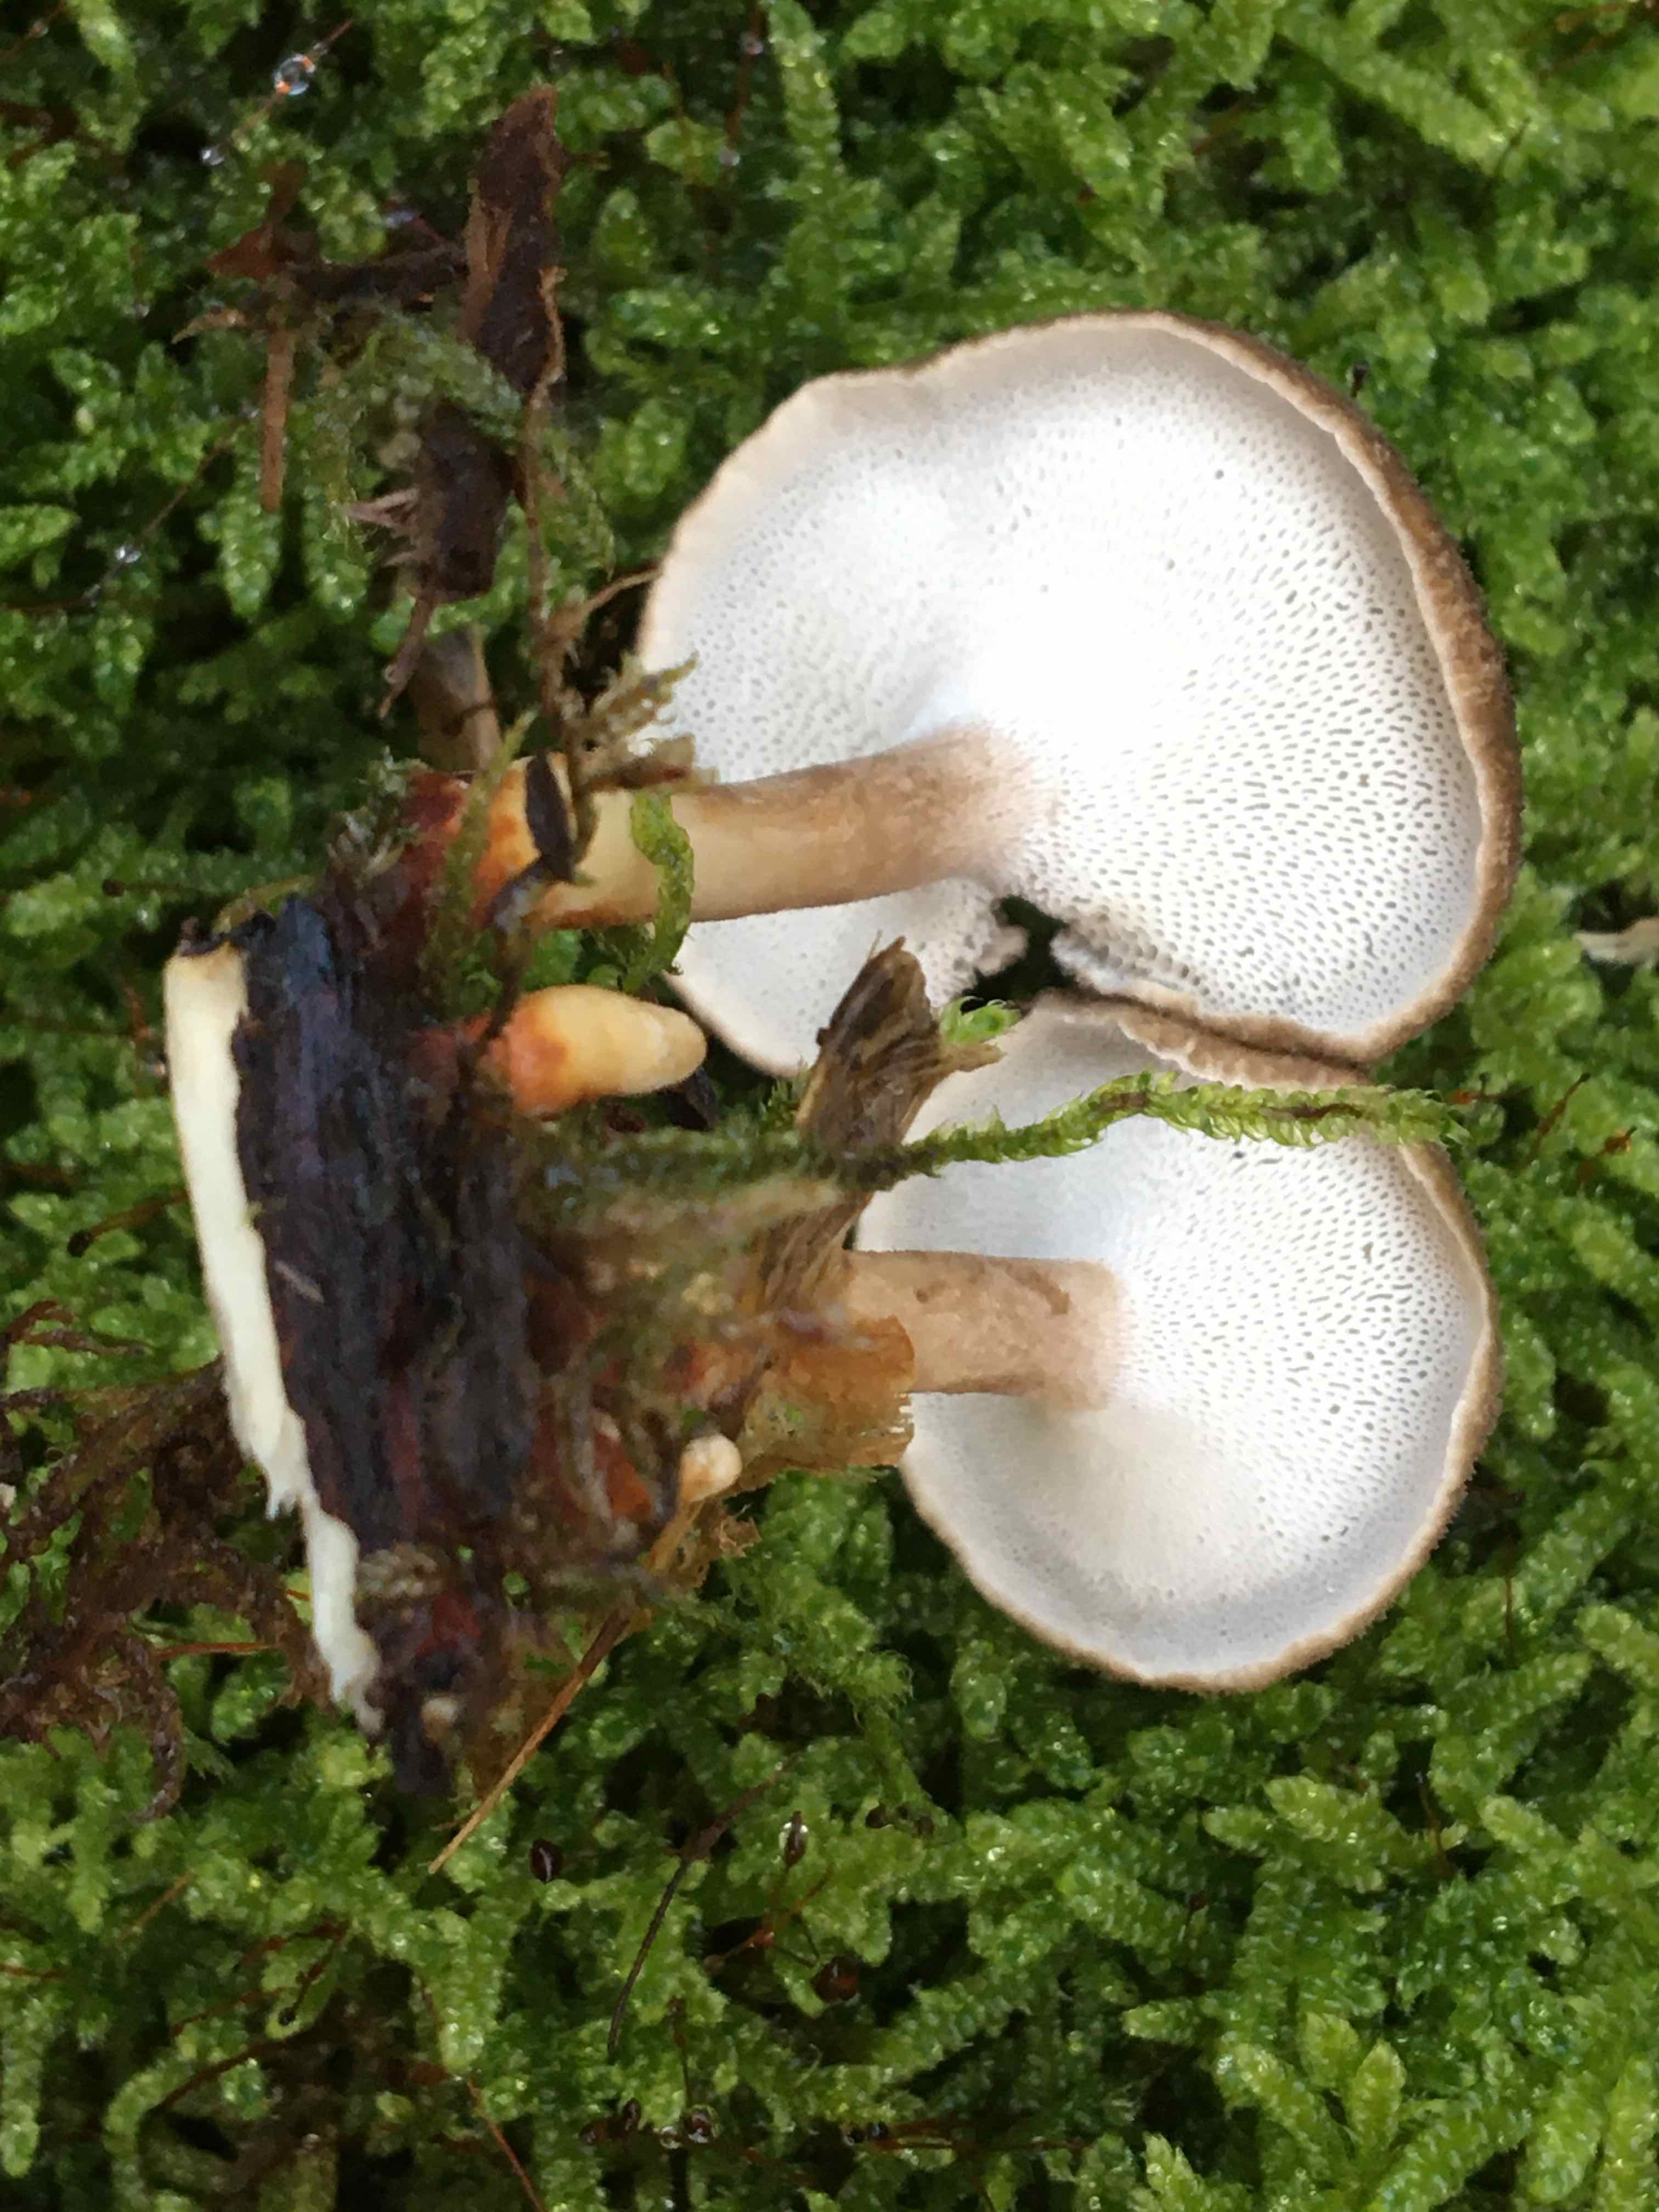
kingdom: Fungi
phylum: Basidiomycota
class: Agaricomycetes
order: Polyporales
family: Polyporaceae
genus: Lentinus
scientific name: Lentinus brumalis
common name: vinter-stilkporesvamp
